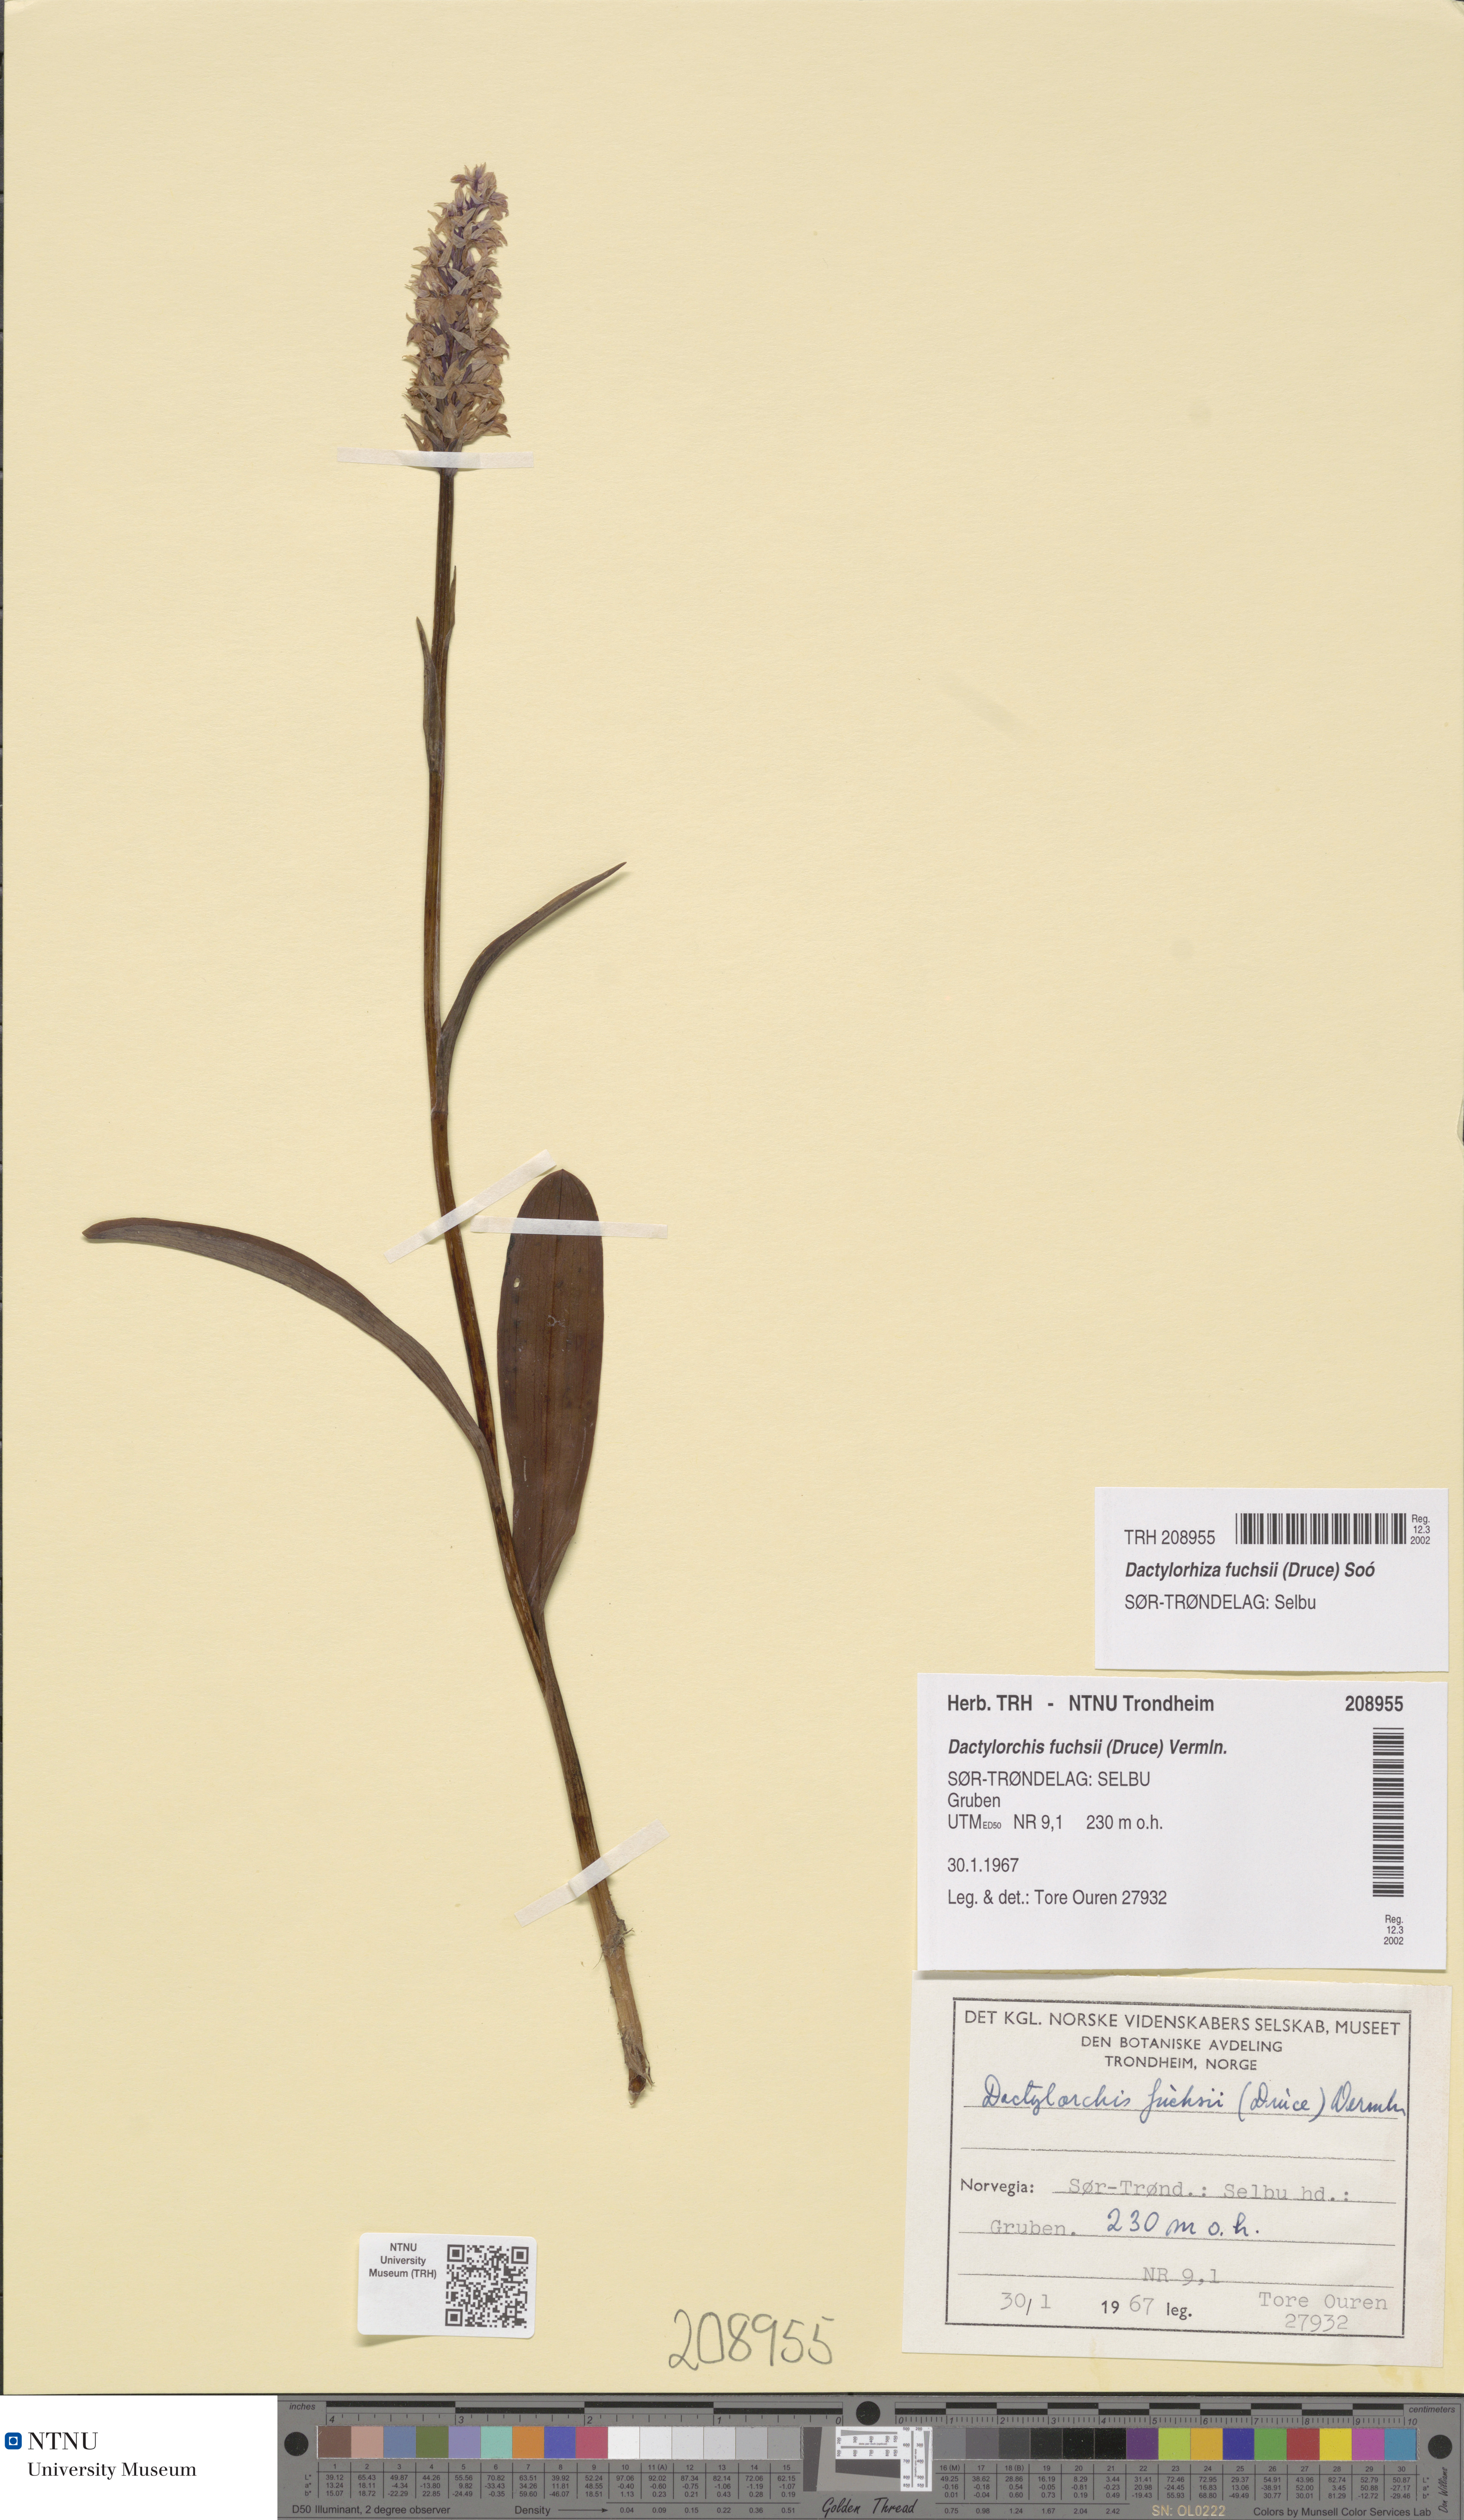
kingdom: Plantae
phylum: Tracheophyta
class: Liliopsida
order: Asparagales
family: Orchidaceae
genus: Dactylorhiza
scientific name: Dactylorhiza maculata
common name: Heath spotted-orchid
